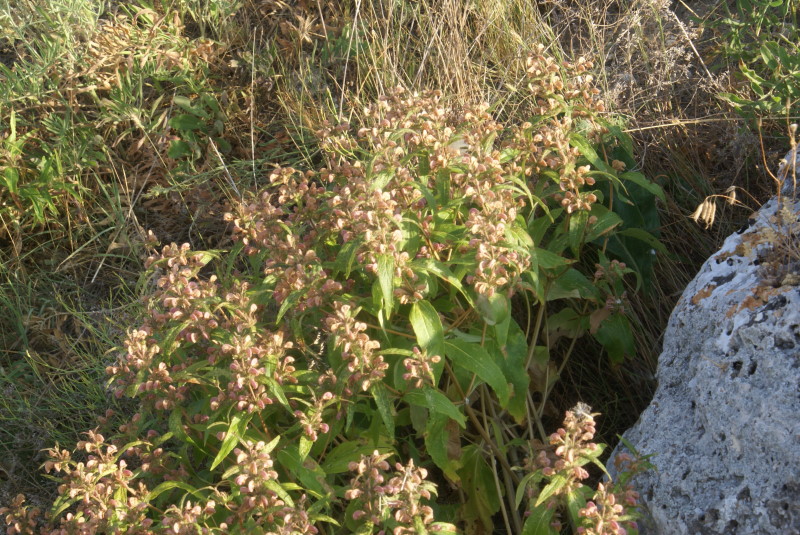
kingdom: Plantae
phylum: Tracheophyta
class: Magnoliopsida
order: Lamiales
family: Lamiaceae
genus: Phlomis
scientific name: Phlomis herba-venti
